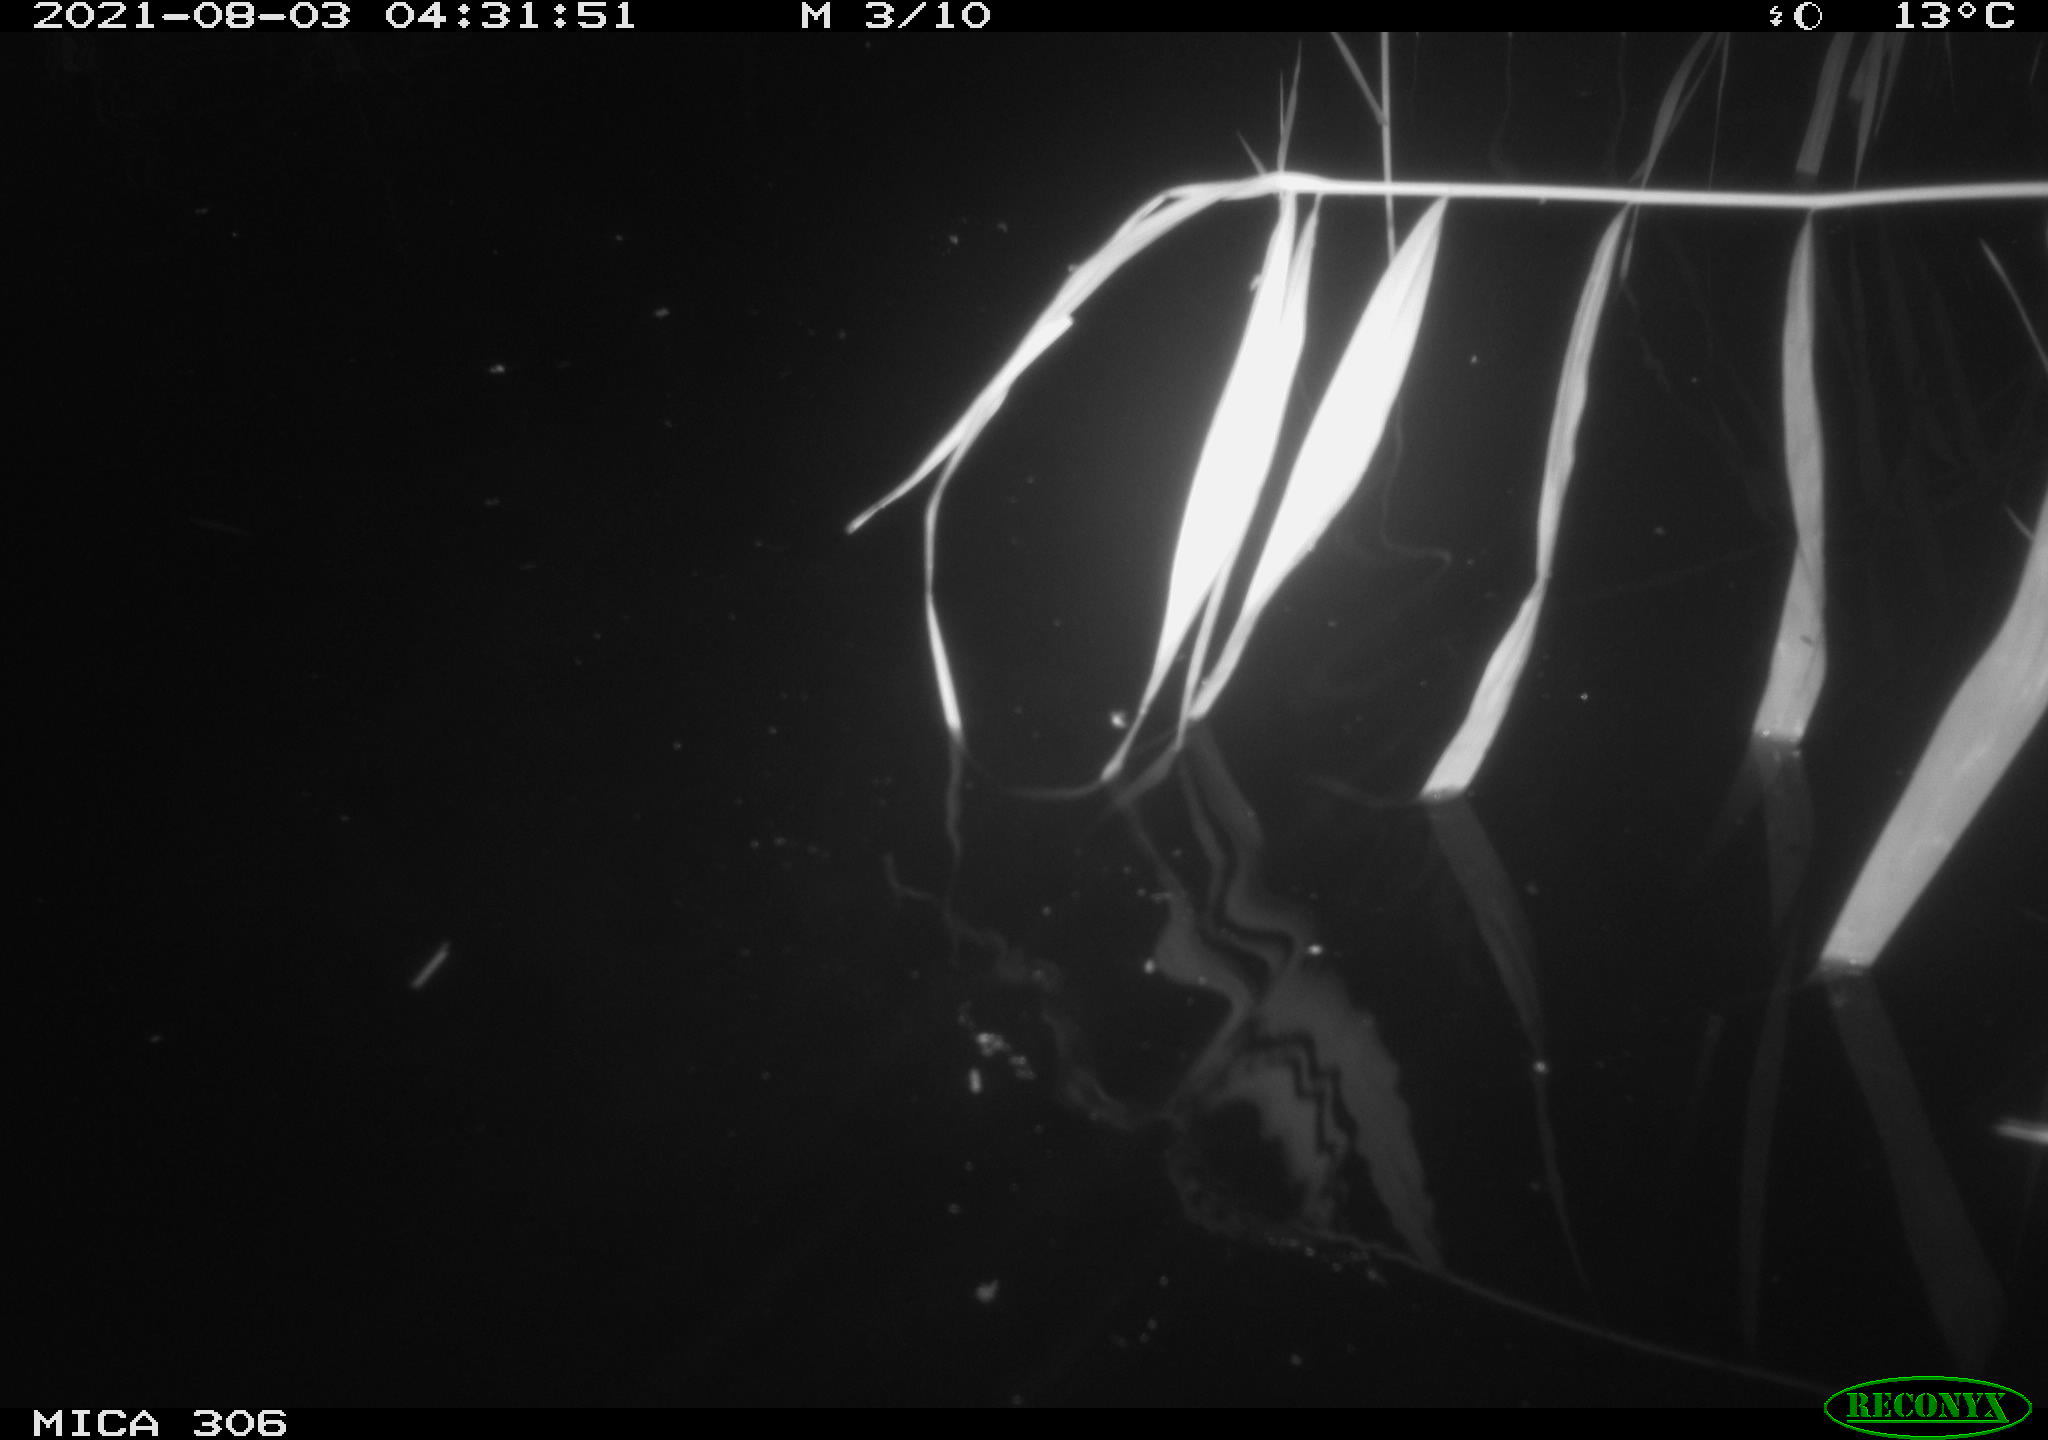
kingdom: Animalia
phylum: Chordata
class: Aves
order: Anseriformes
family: Anatidae
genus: Anas
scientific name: Anas platyrhynchos
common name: Mallard
